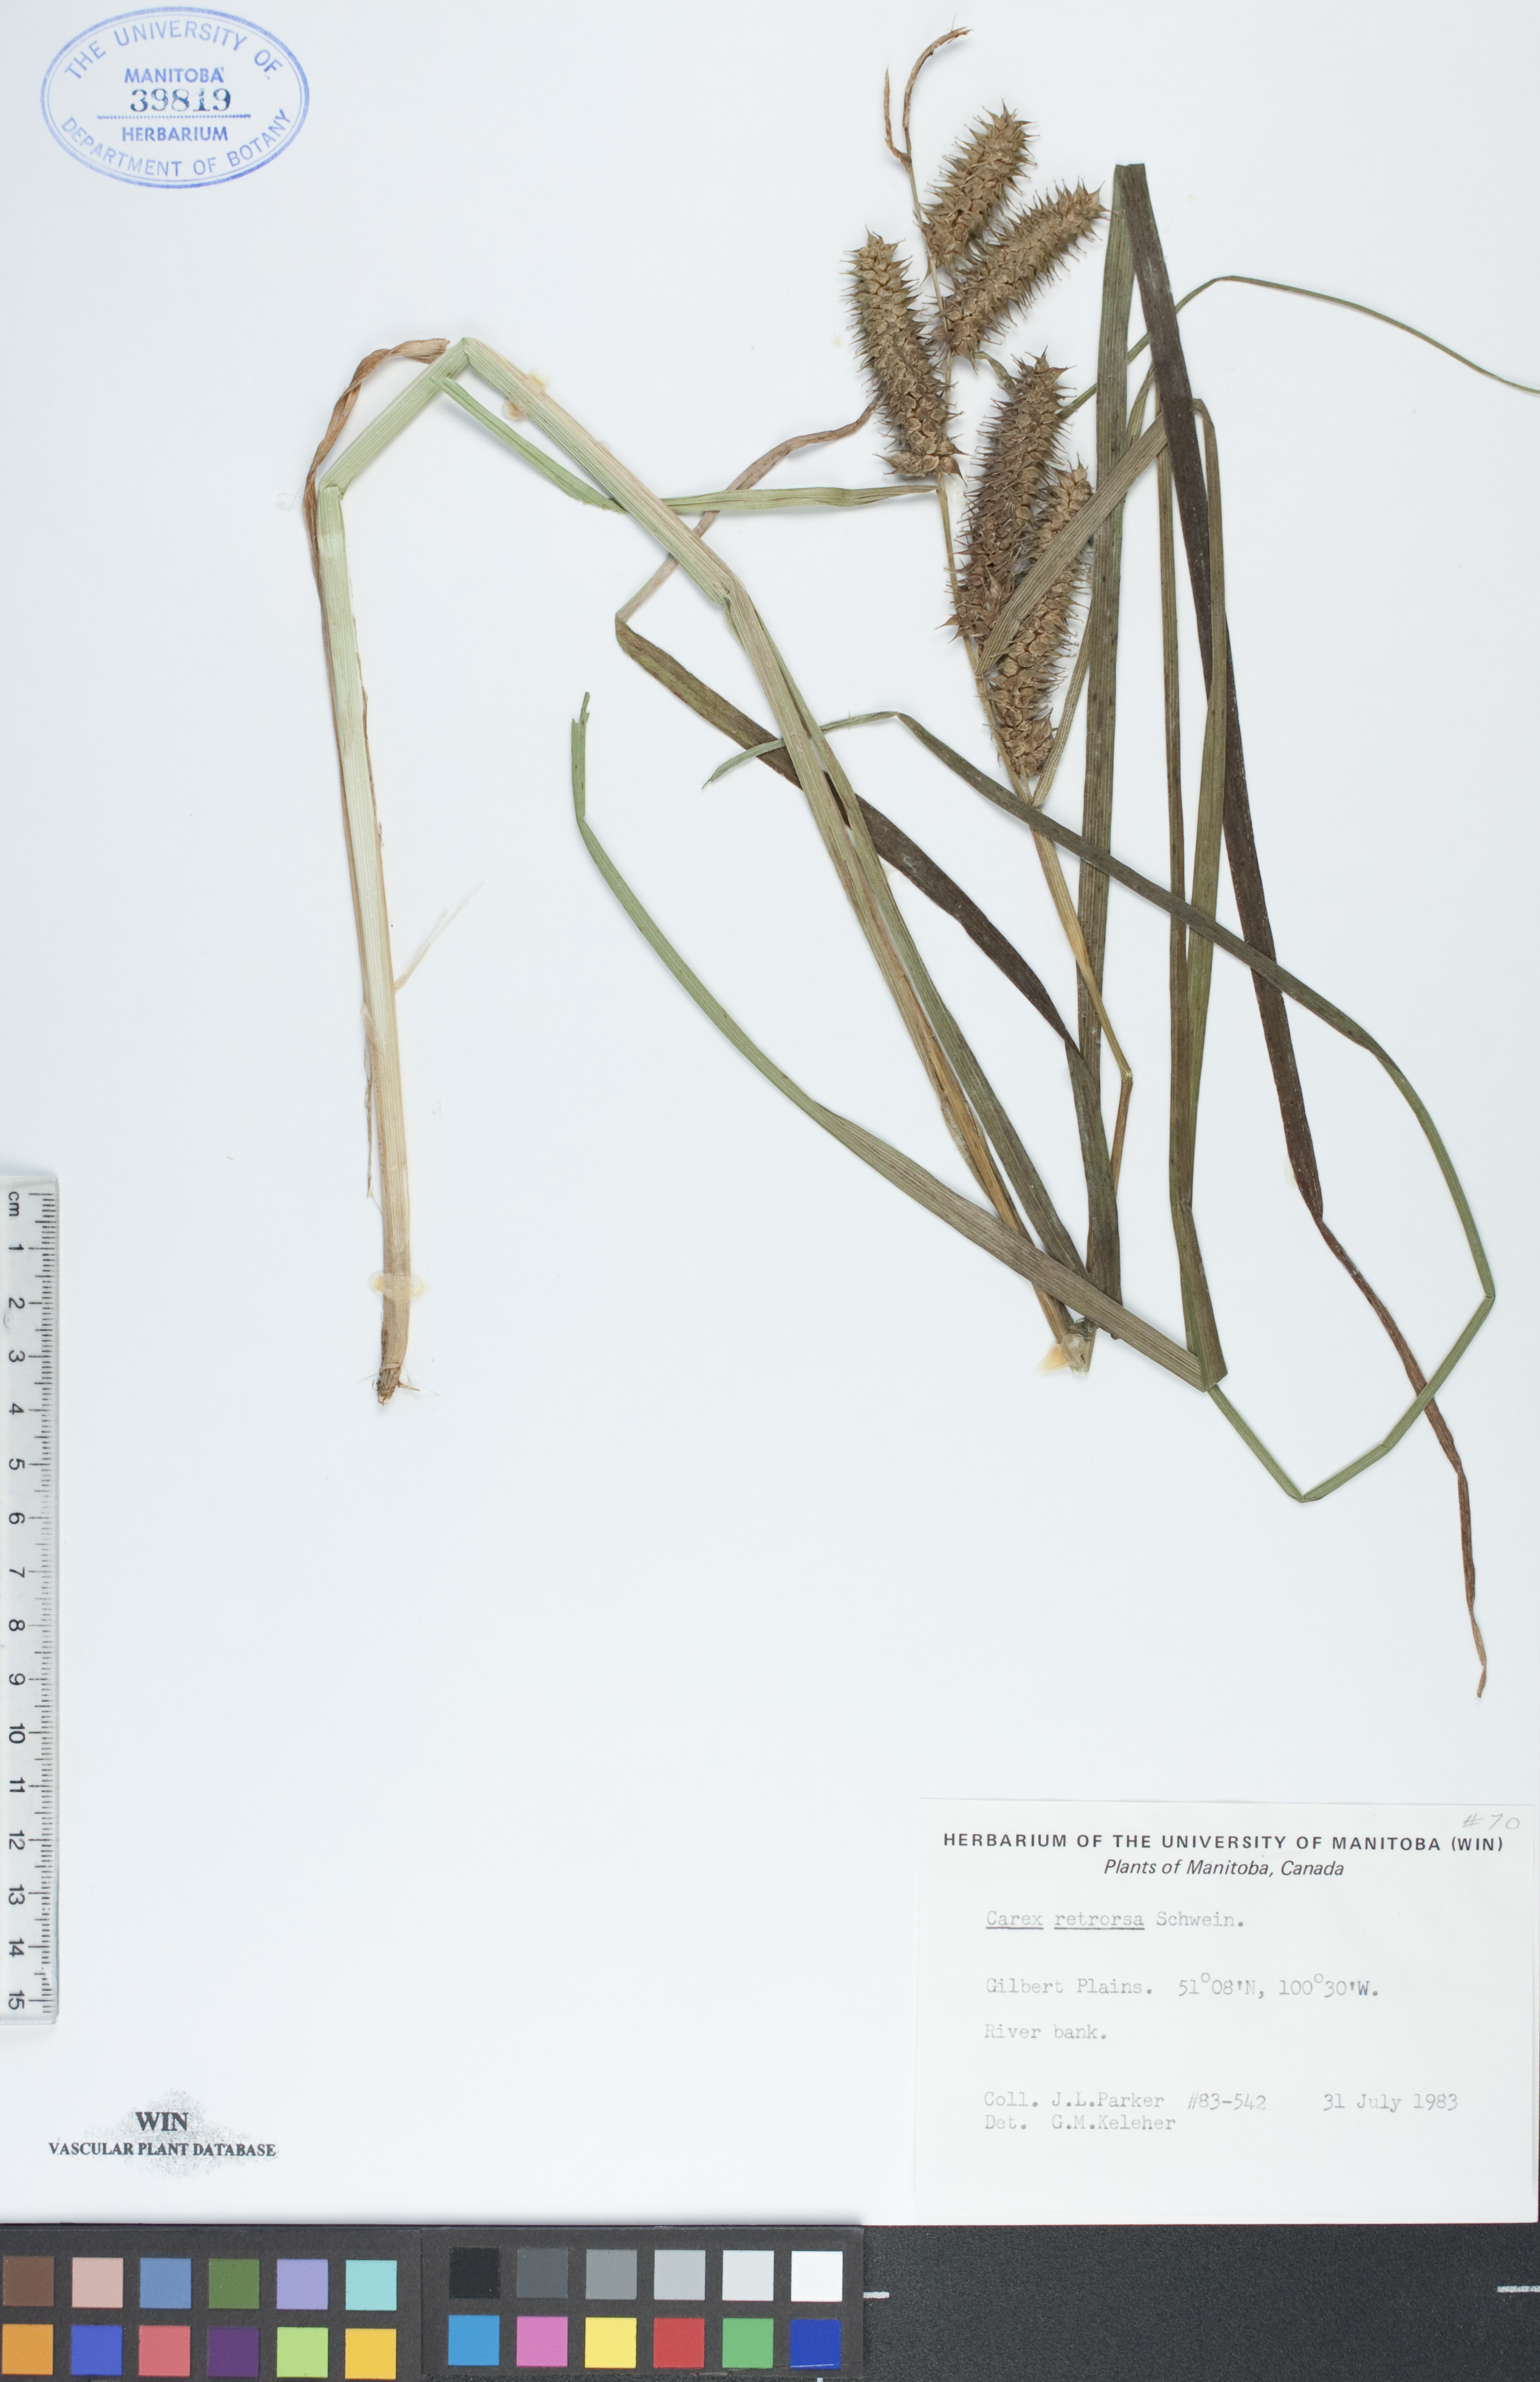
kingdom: Plantae
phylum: Tracheophyta
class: Liliopsida
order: Poales
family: Cyperaceae
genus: Carex
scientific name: Carex retrorsa
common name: Knot-sheath sedge
